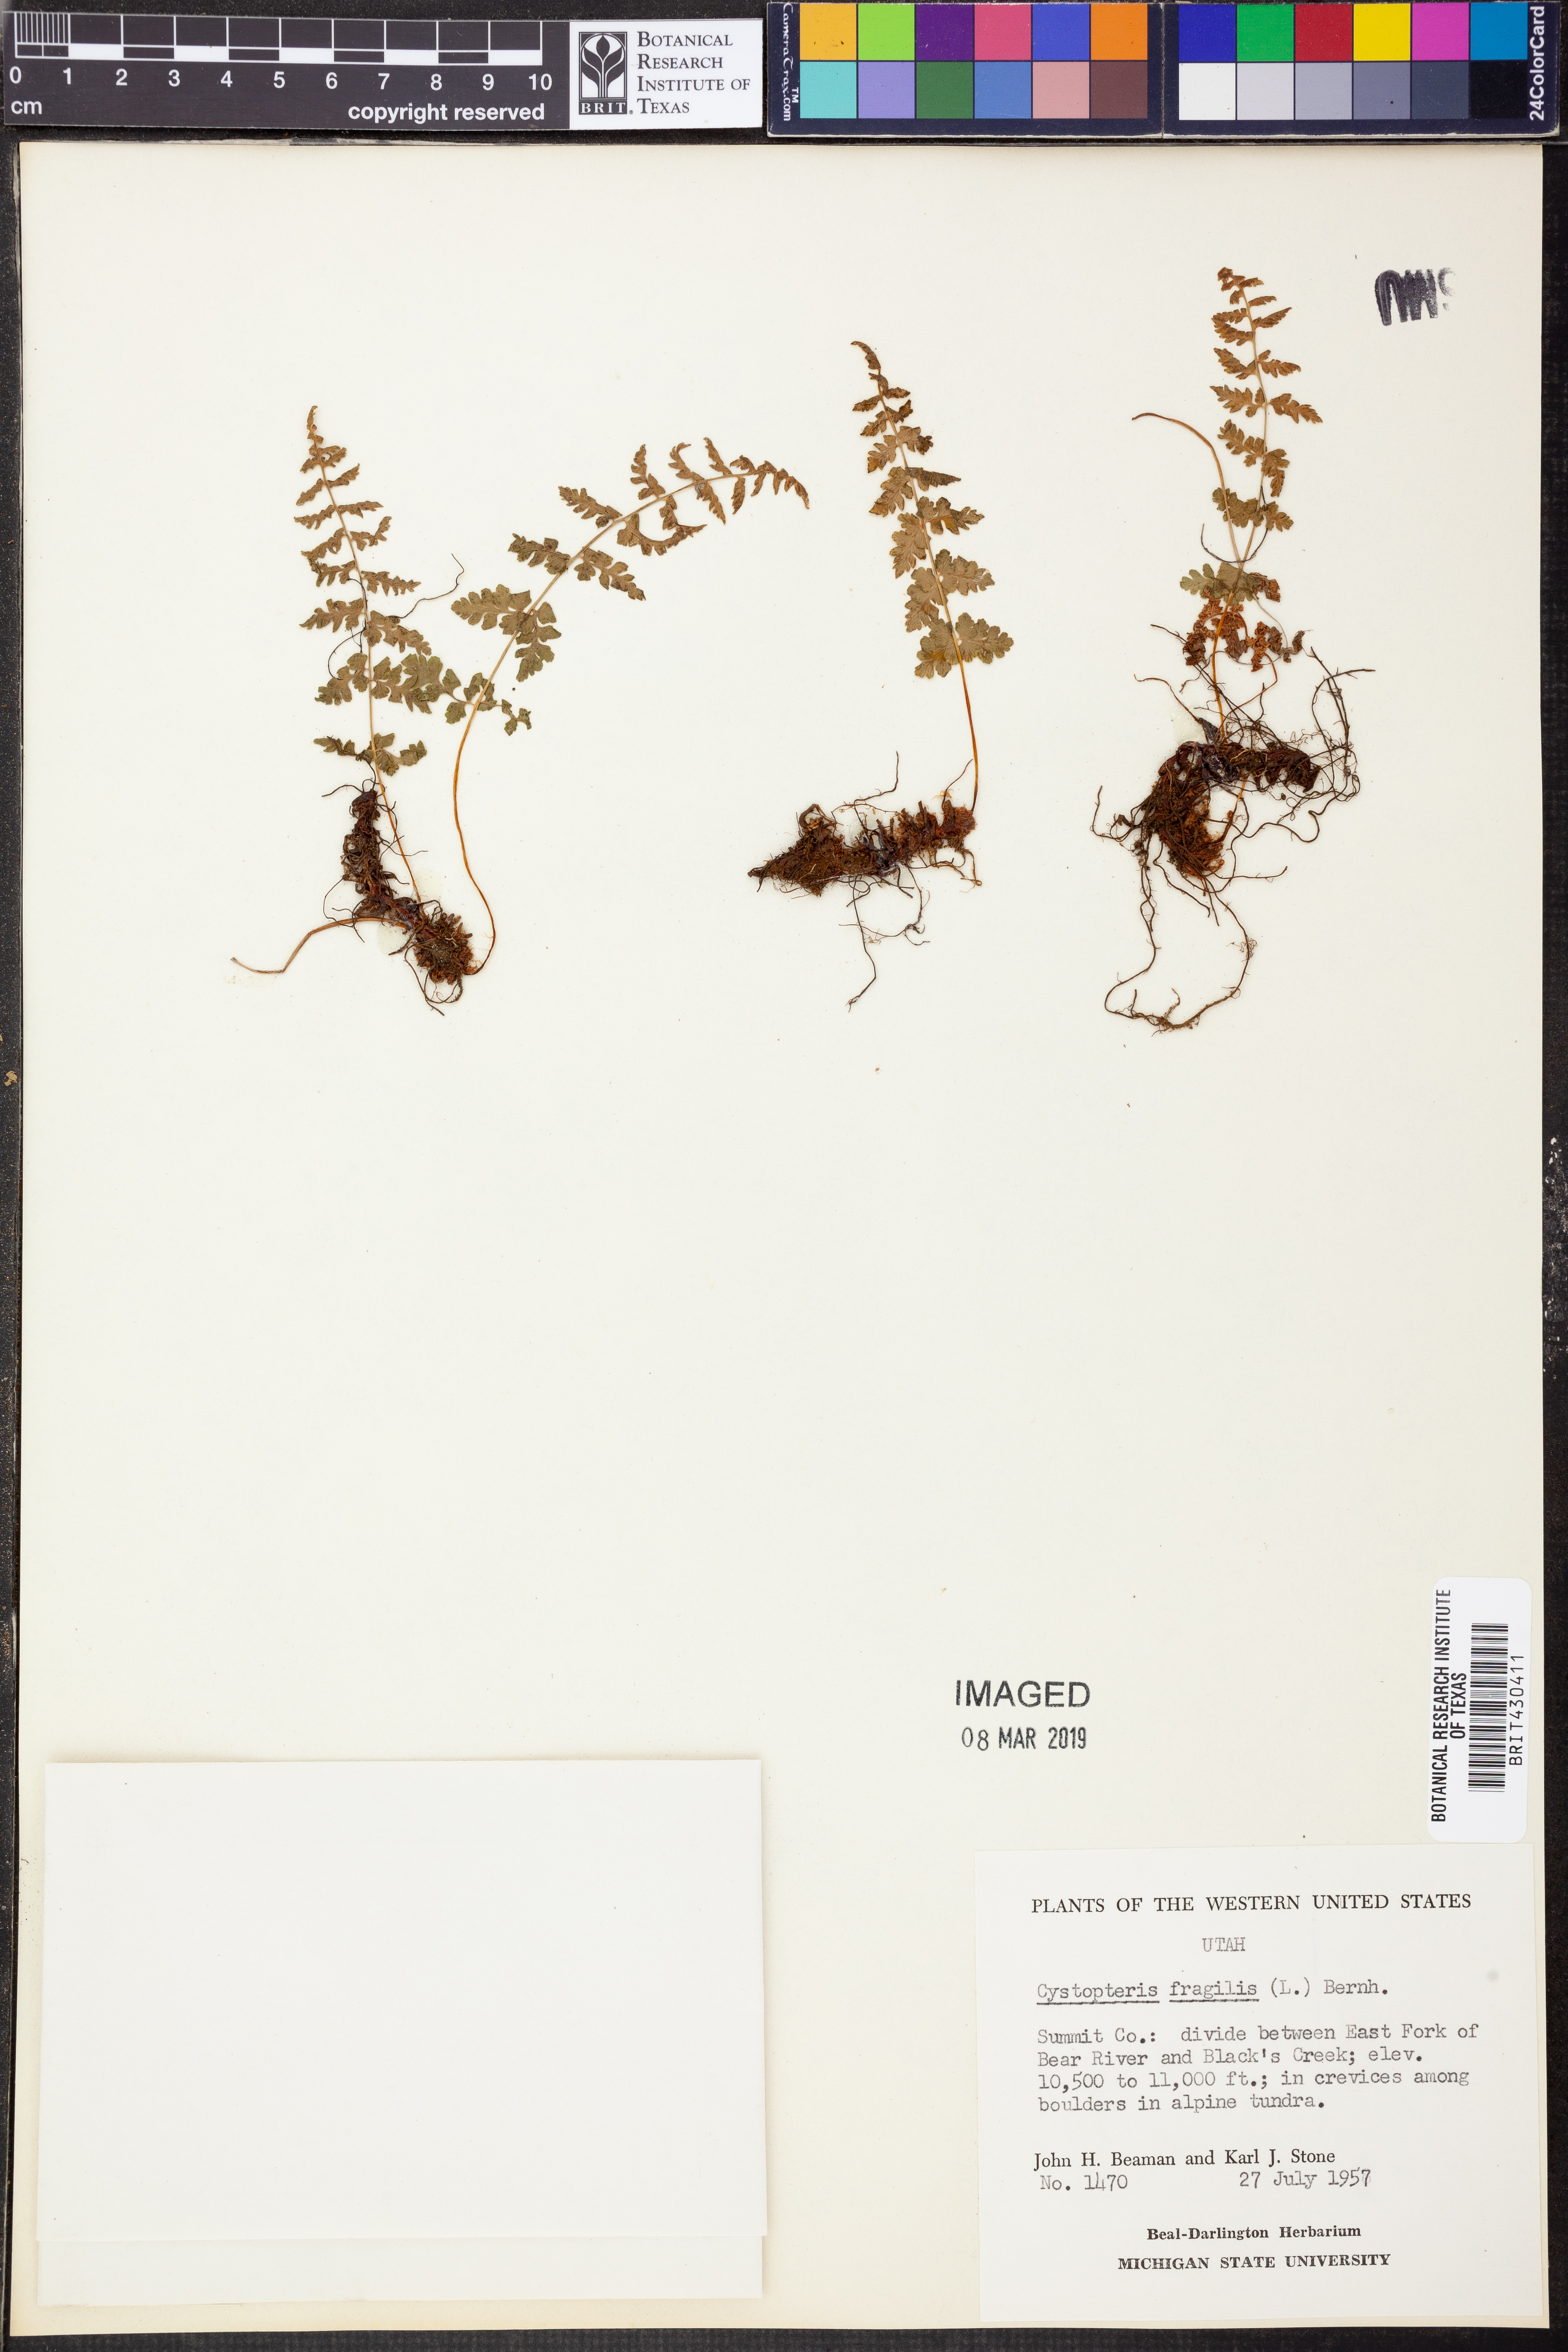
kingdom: Plantae
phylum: Tracheophyta
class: Polypodiopsida
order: Polypodiales
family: Cystopteridaceae
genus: Cystopteris
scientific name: Cystopteris fragilis
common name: Brittle bladder fern
